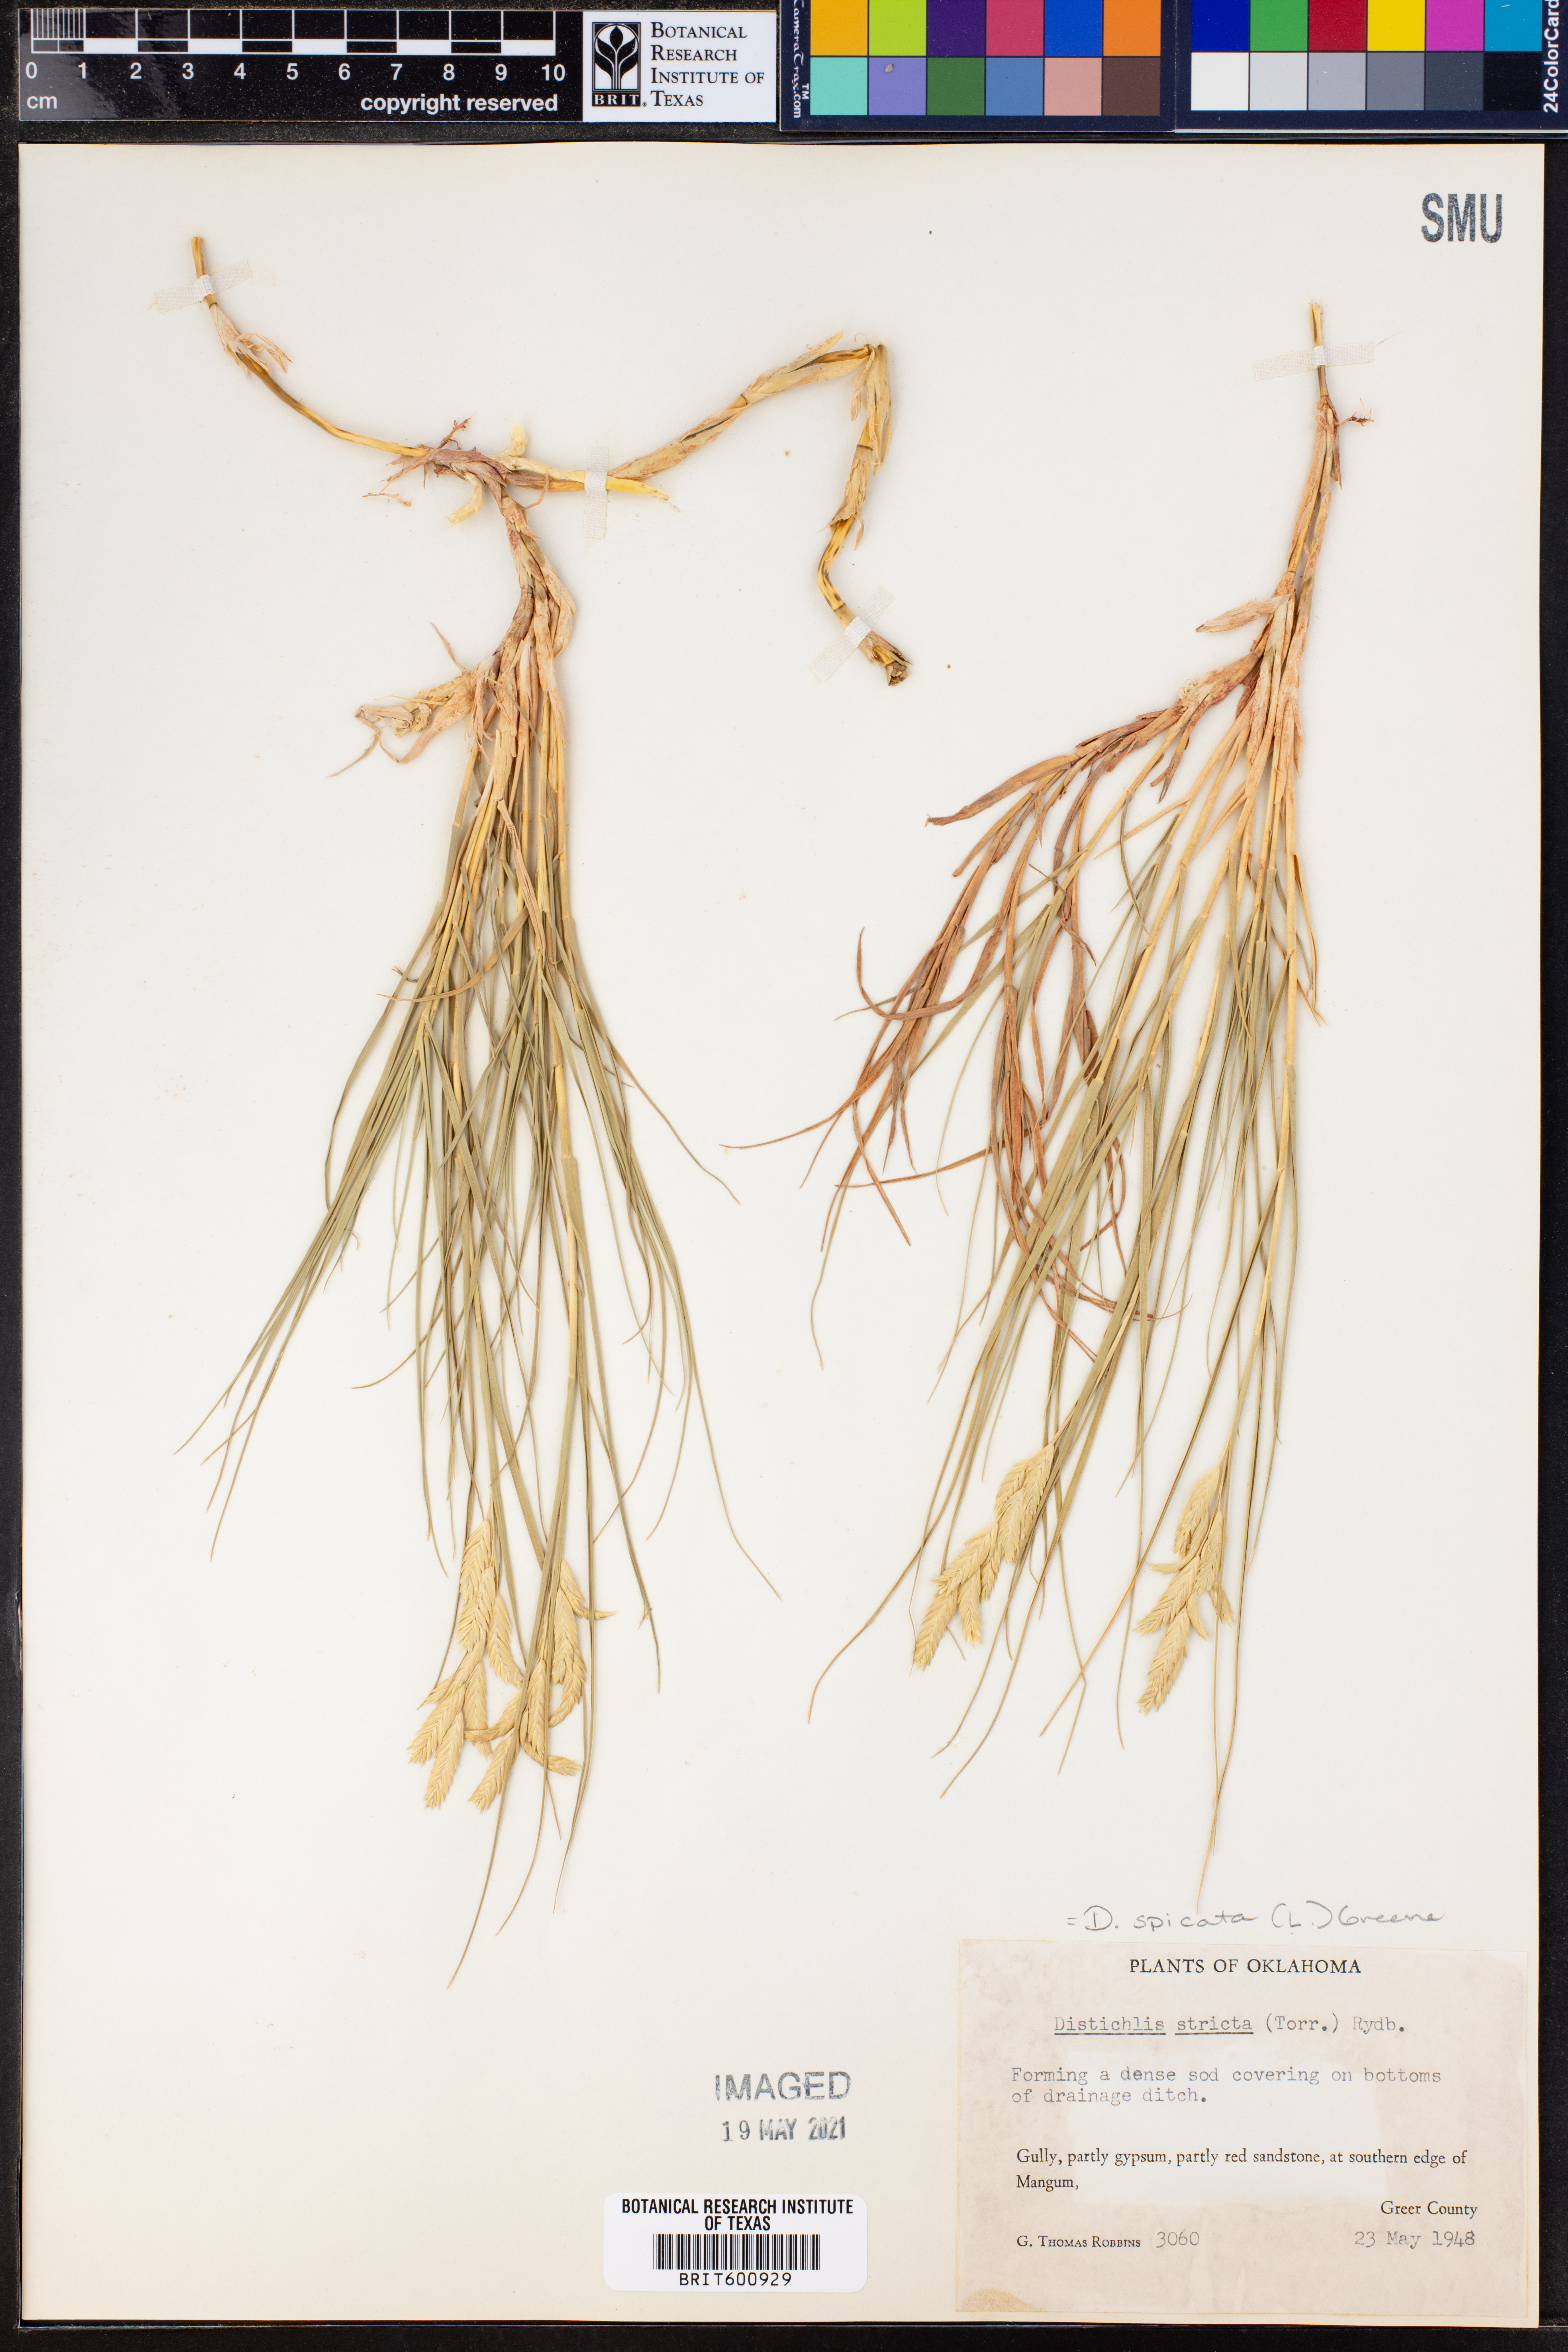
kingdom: Plantae
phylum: Tracheophyta
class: Liliopsida
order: Poales
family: Poaceae
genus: Distichlis
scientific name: Distichlis spicata
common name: Saltgrass
